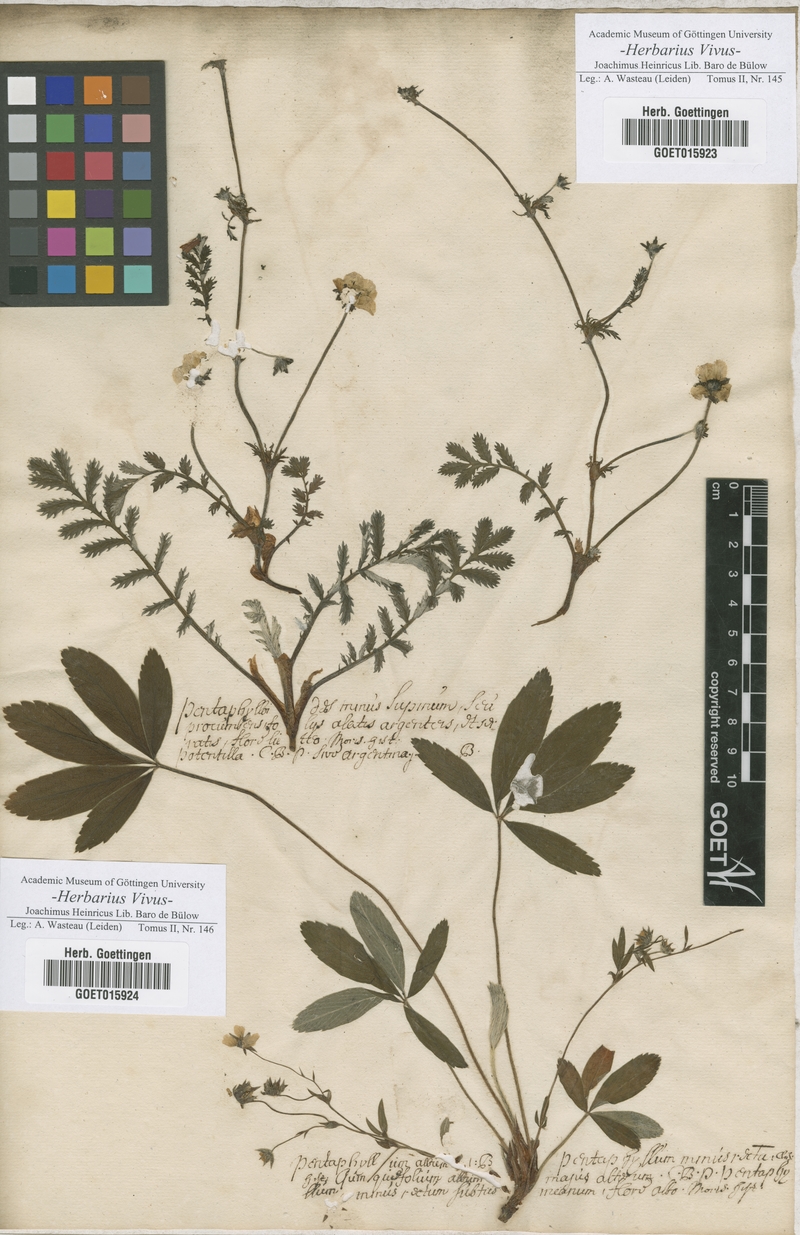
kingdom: Plantae
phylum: Tracheophyta
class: Magnoliopsida
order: Rosales
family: Rosaceae
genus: Argentina
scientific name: Argentina anserina
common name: Common silverweed
